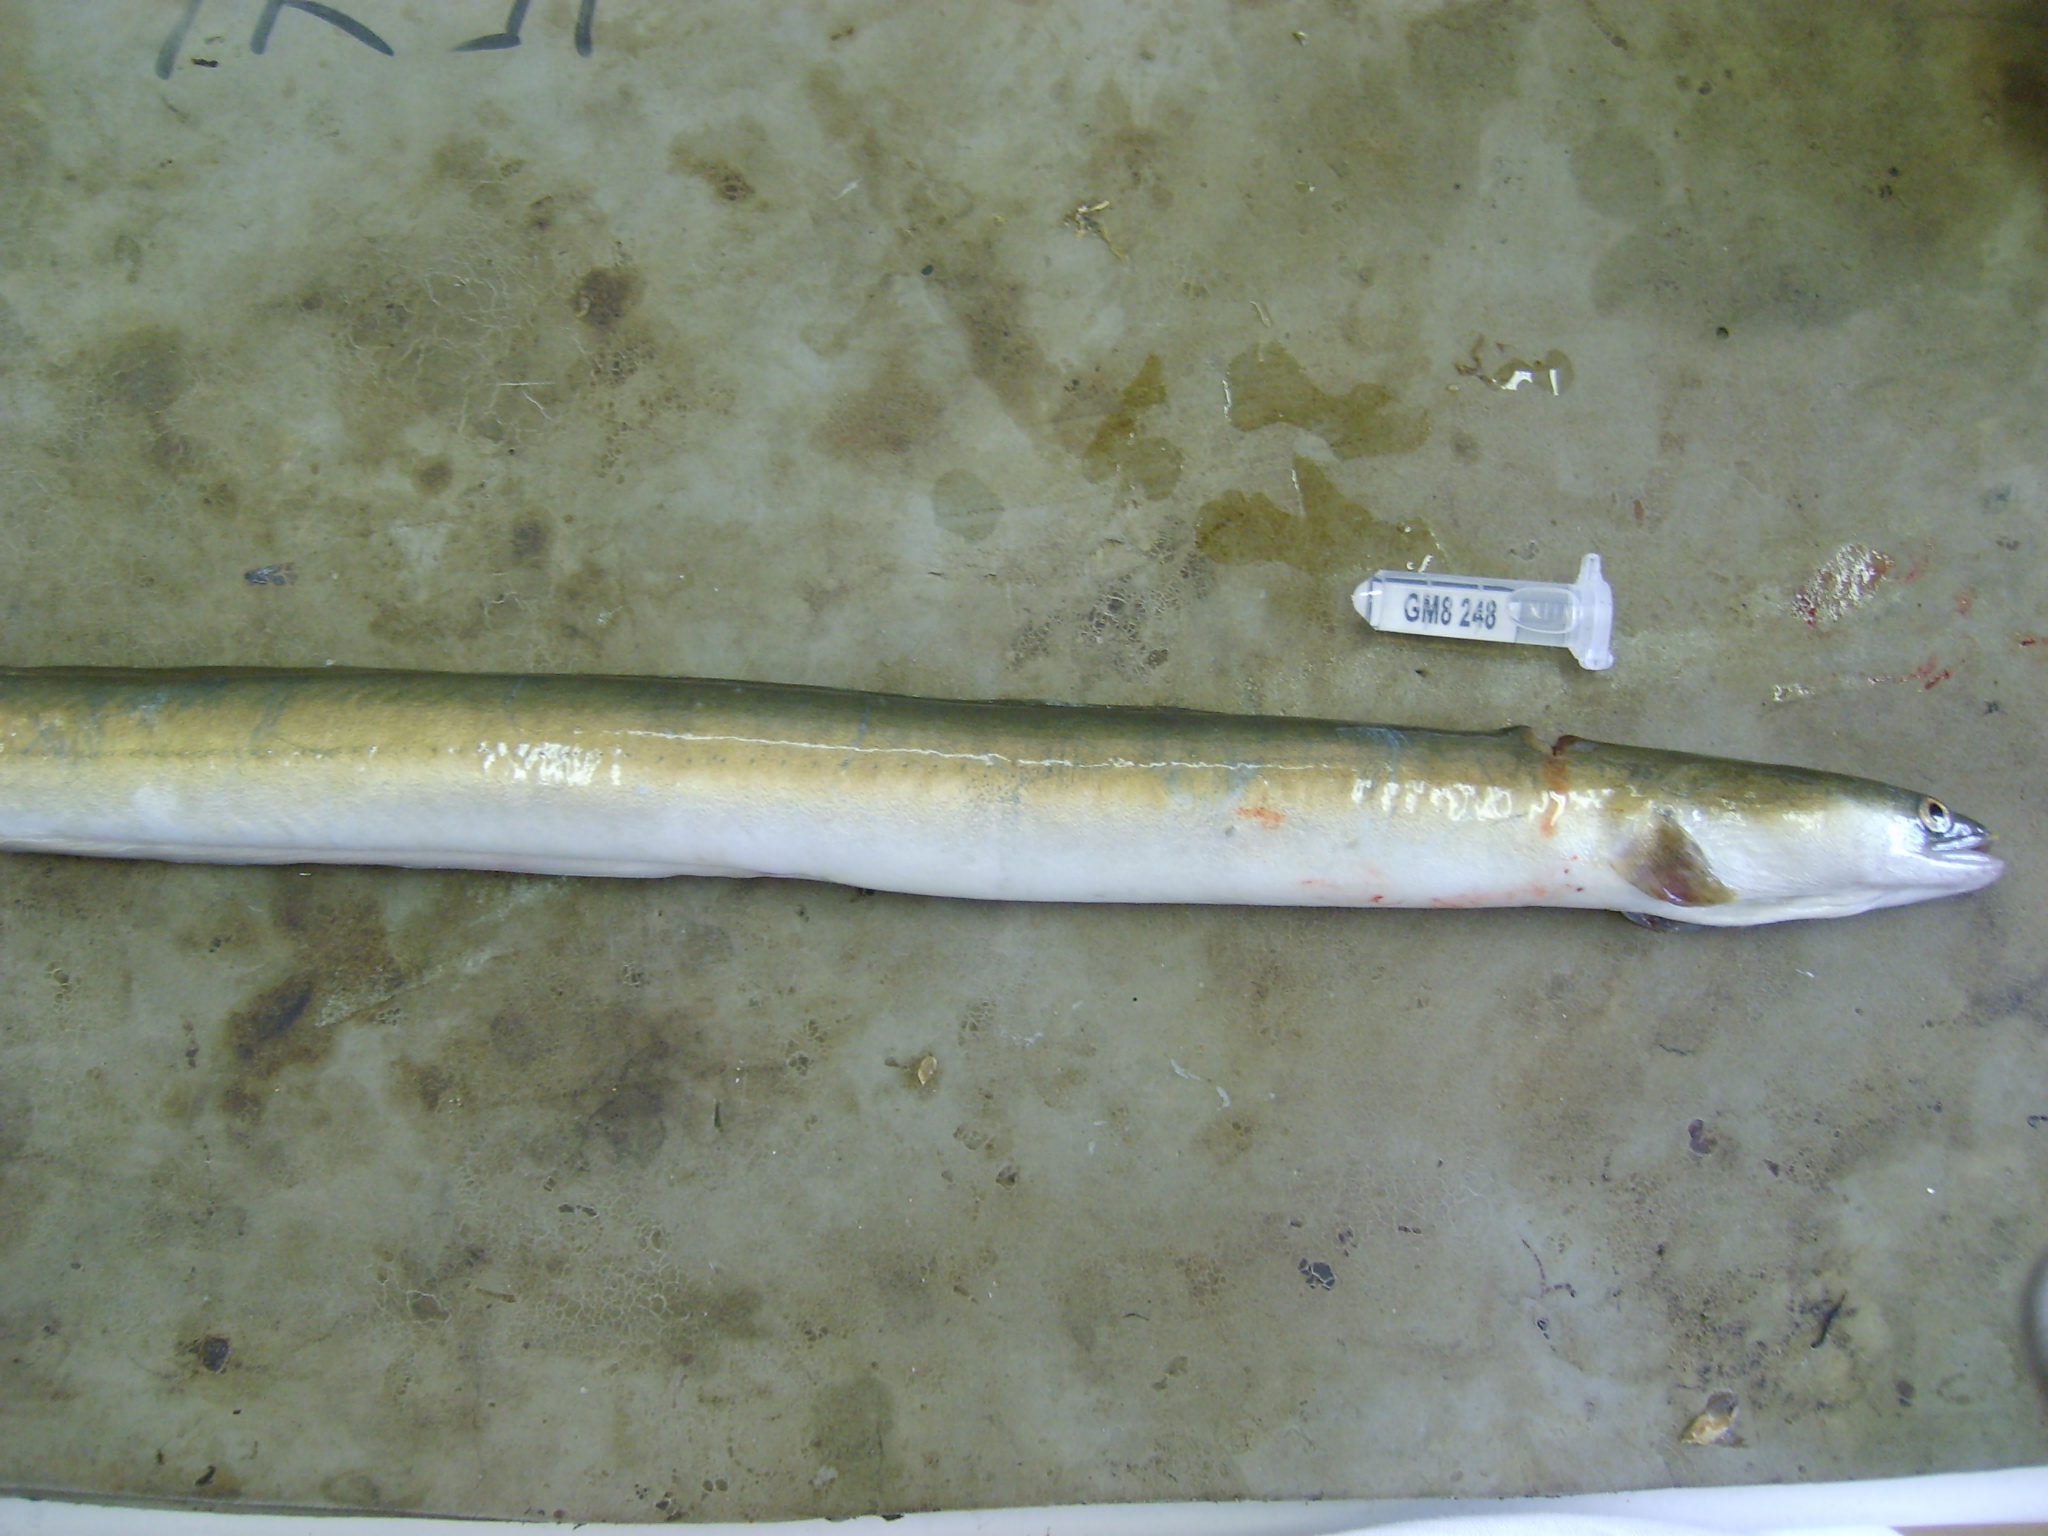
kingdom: Animalia
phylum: Chordata
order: Anguilliformes
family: Anguillidae
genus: Anguilla
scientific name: Anguilla mossambica
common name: African longfin eel
